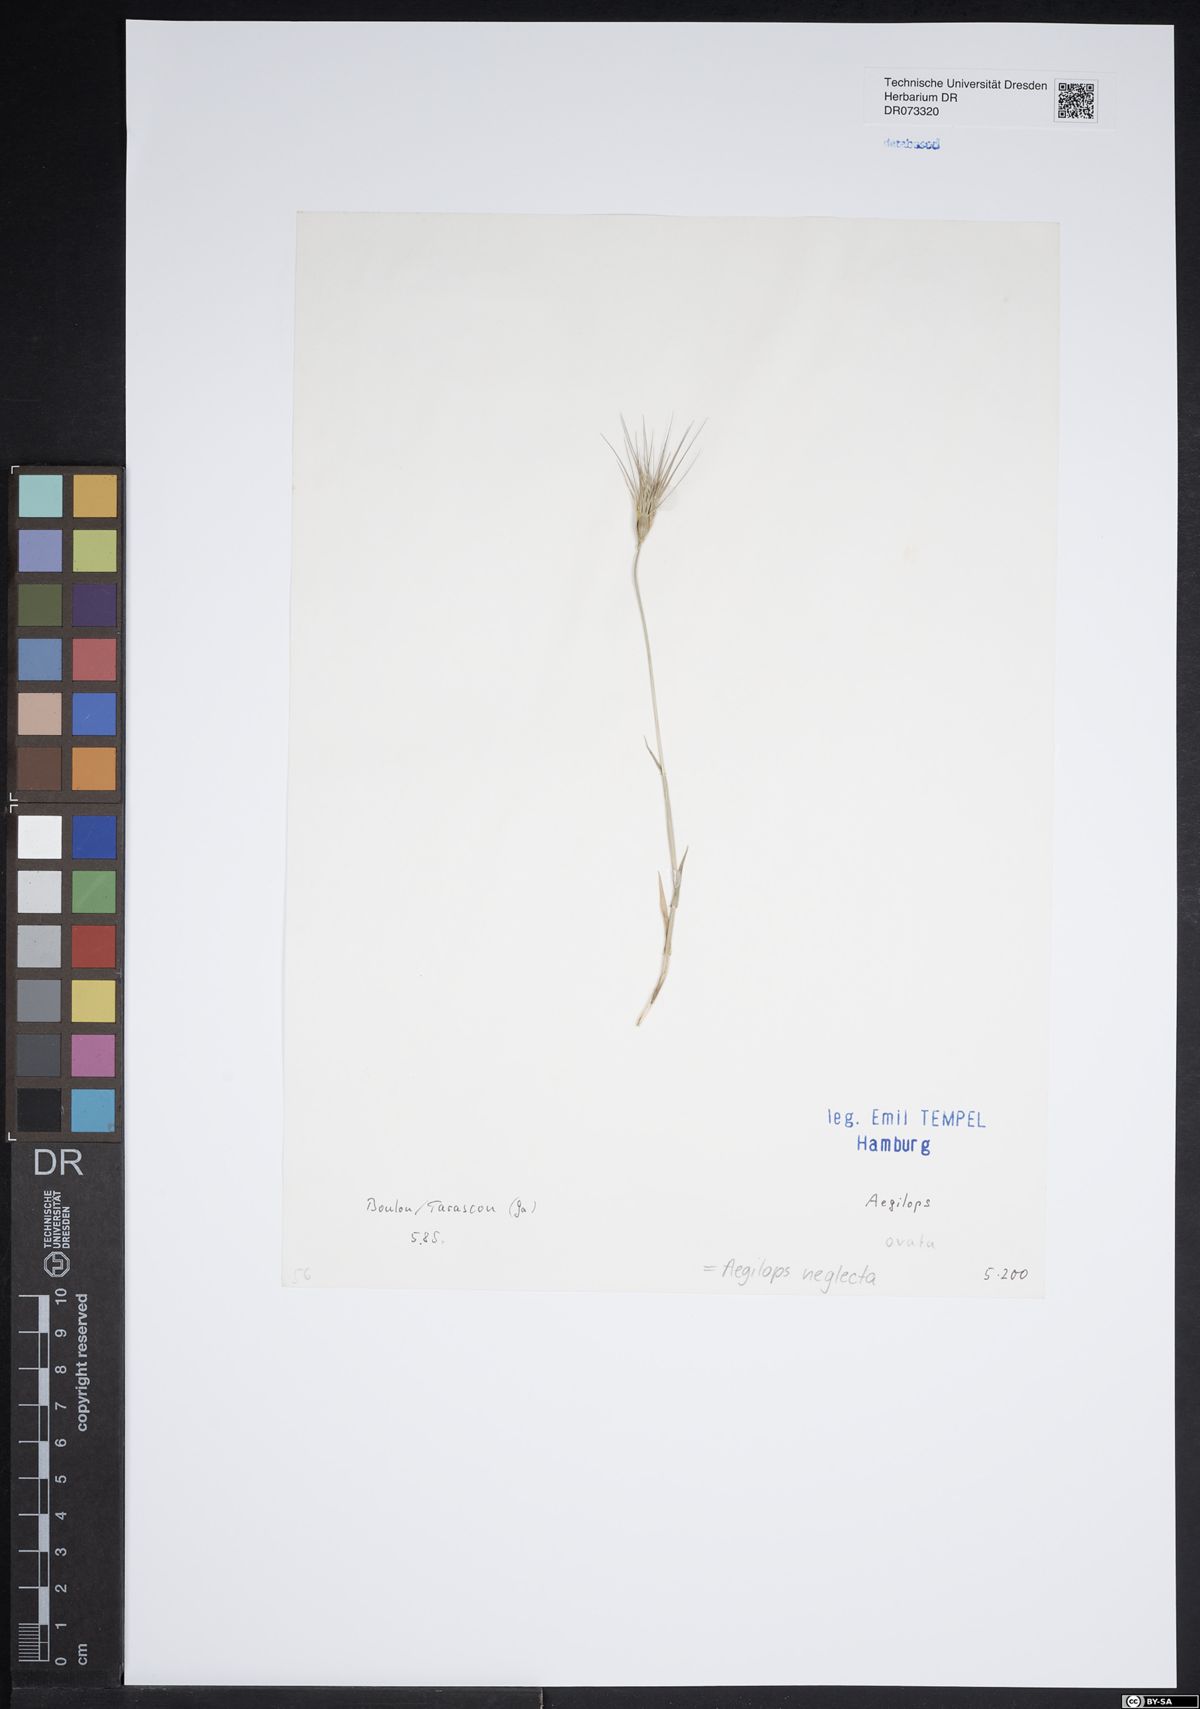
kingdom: Plantae
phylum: Tracheophyta
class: Liliopsida
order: Poales
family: Poaceae
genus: Aegilops
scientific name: Aegilops neglecta
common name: Three-awn goat grass
